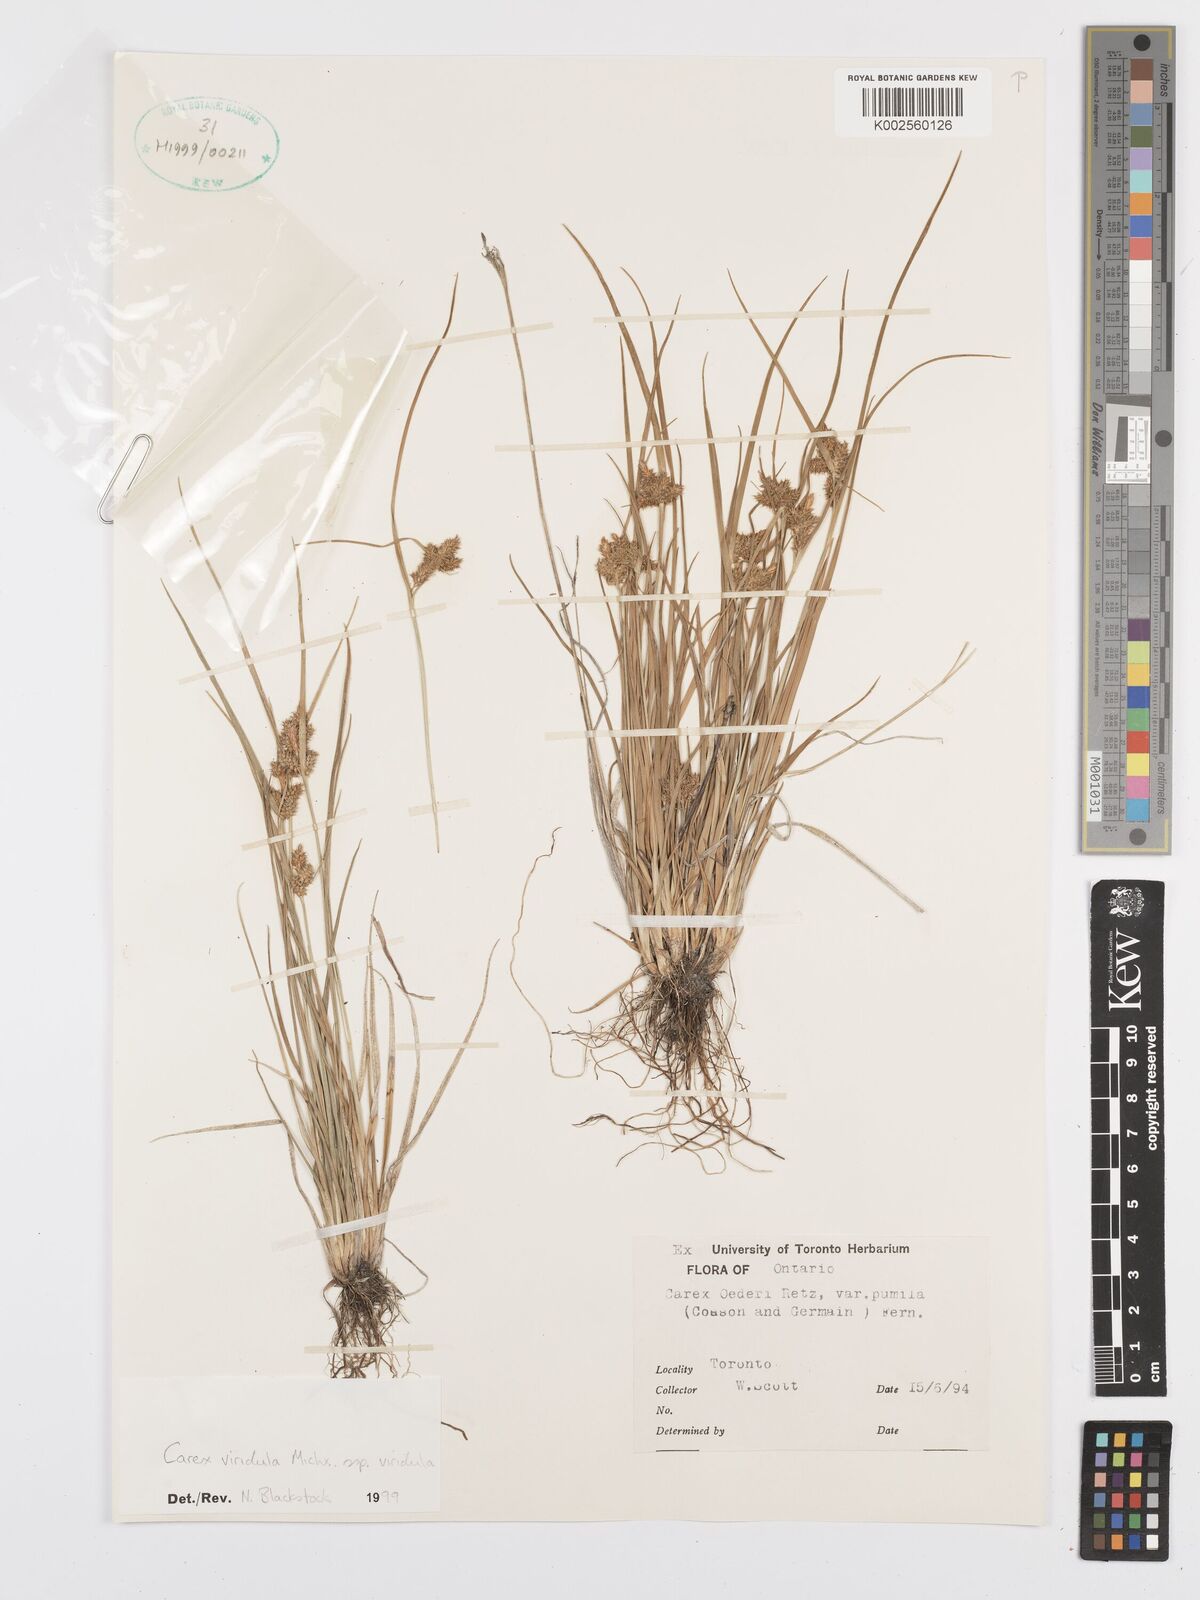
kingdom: Plantae
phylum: Tracheophyta
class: Liliopsida
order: Poales
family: Cyperaceae
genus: Carex
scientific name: Carex oederi
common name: Common & small-fruited yellow-sedge
